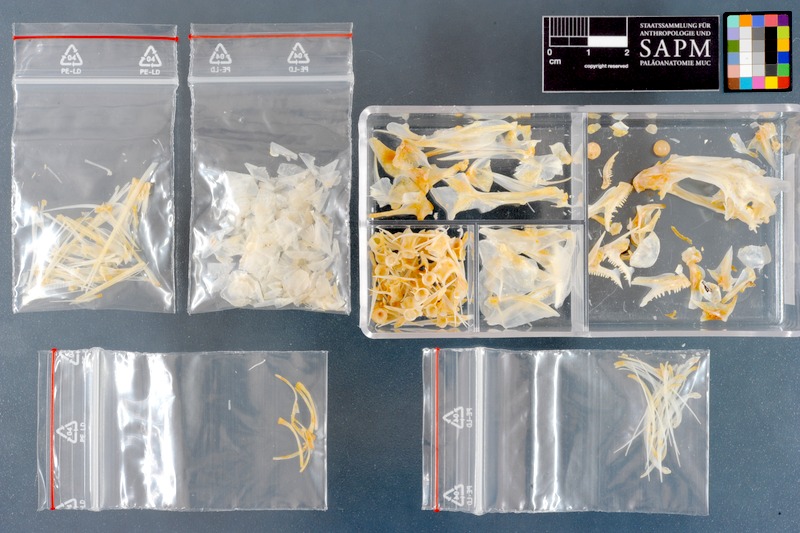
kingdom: Animalia
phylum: Chordata
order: Perciformes
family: Nemipteridae
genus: Nemipterus
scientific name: Nemipterus peronii
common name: Peron's threadfin bream
